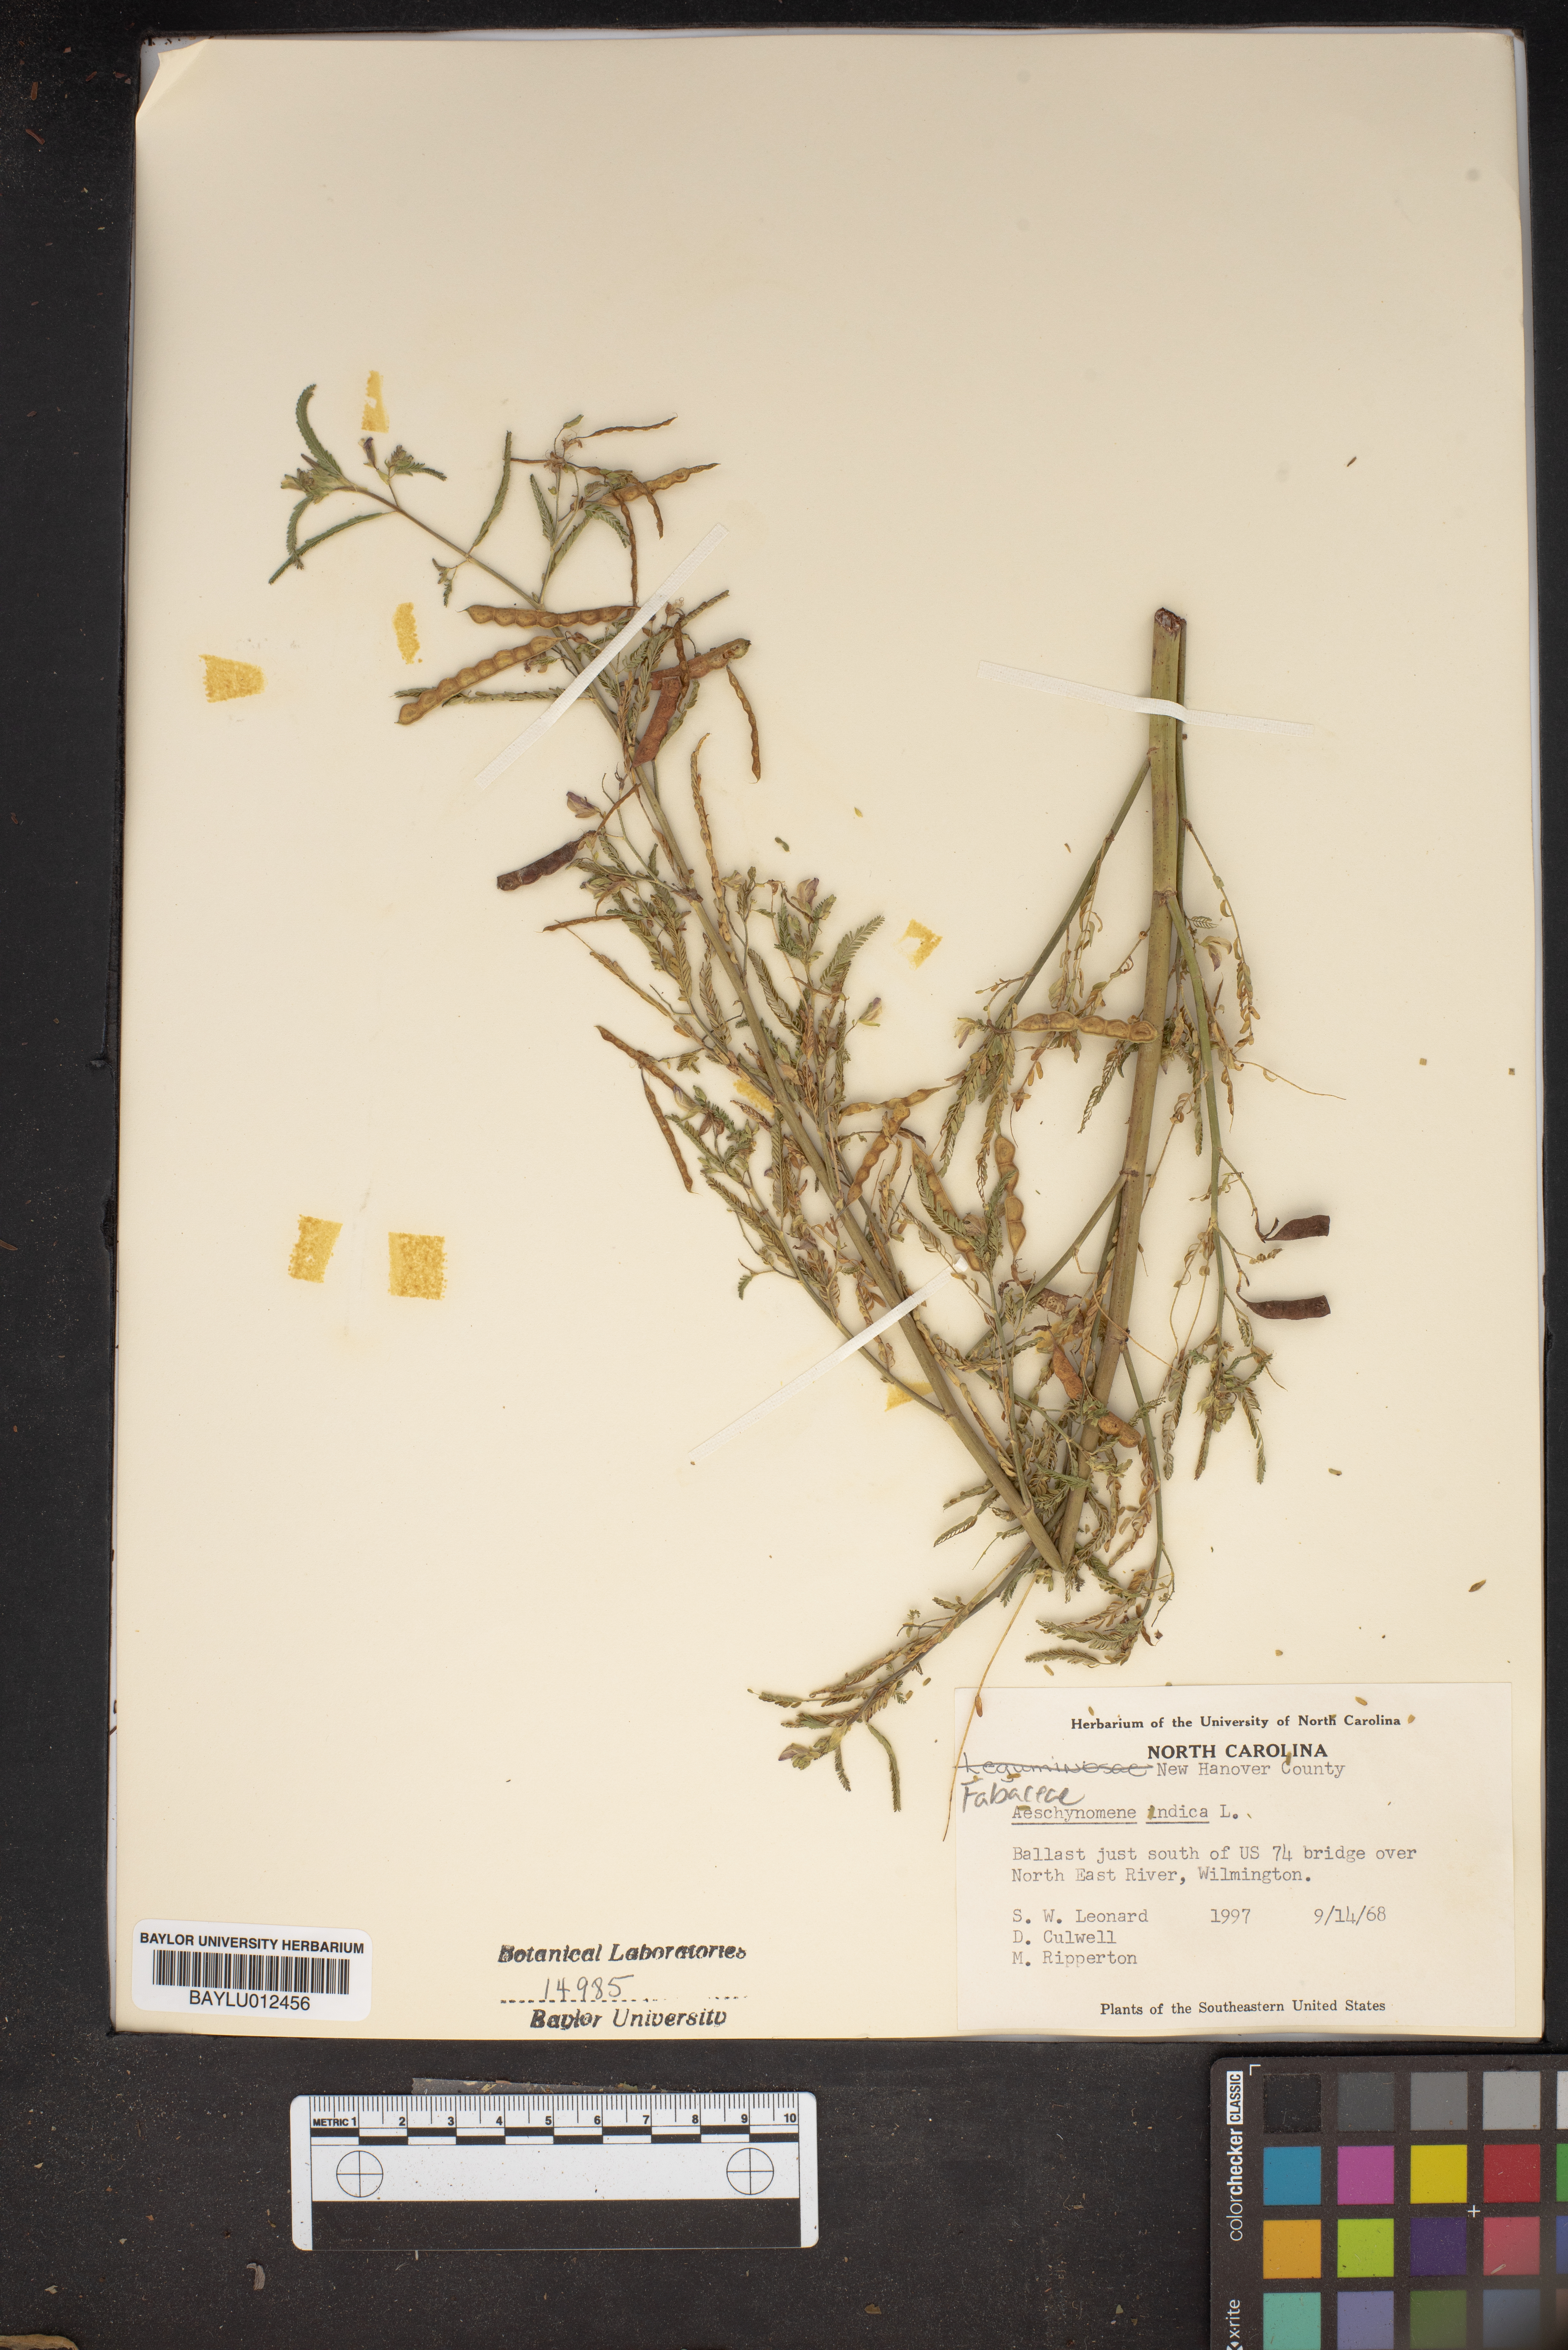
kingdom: Plantae
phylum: Tracheophyta
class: Magnoliopsida
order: Fabales
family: Fabaceae
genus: Aeschynomene
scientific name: Aeschynomene indica
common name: Indian jointvetch
